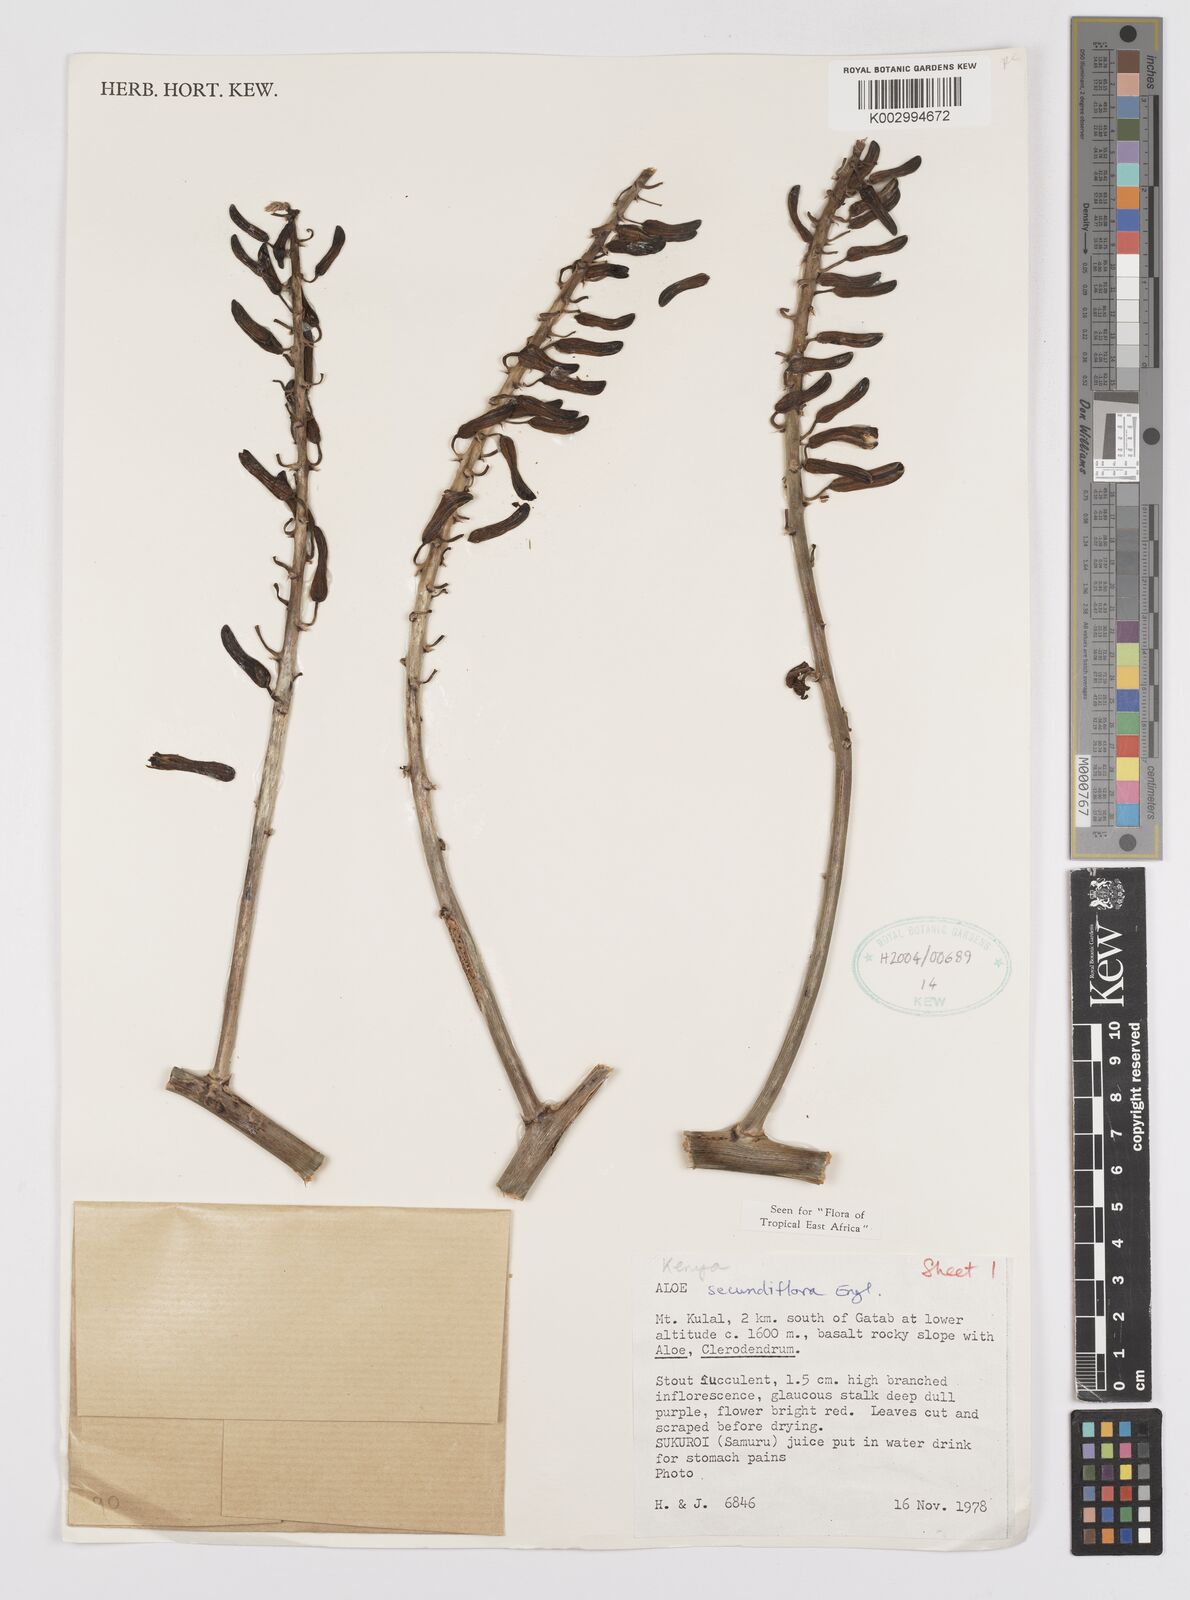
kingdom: Plantae
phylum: Tracheophyta
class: Liliopsida
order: Asparagales
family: Asphodelaceae
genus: Aloe
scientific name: Aloe secundiflora
